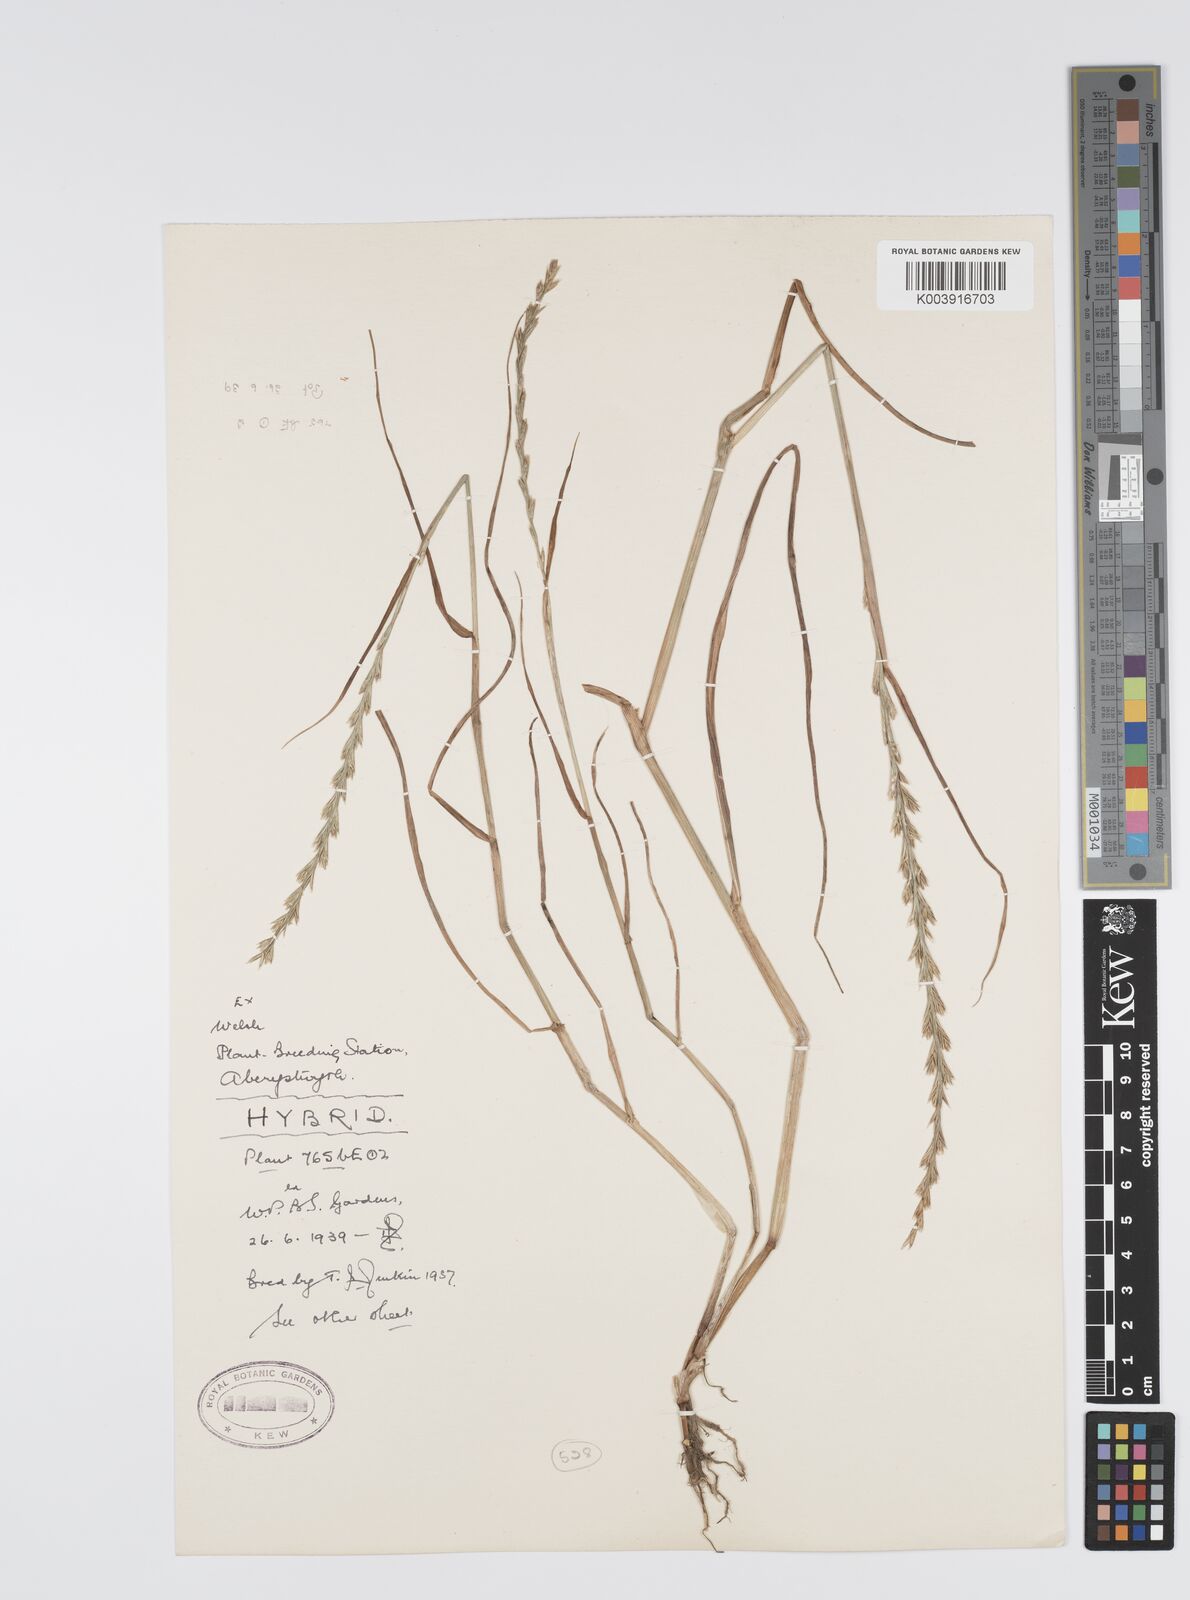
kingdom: Plantae
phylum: Tracheophyta
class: Liliopsida
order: Poales
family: Poaceae
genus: Lolium
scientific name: Lolium perenne
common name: Perennial ryegrass
